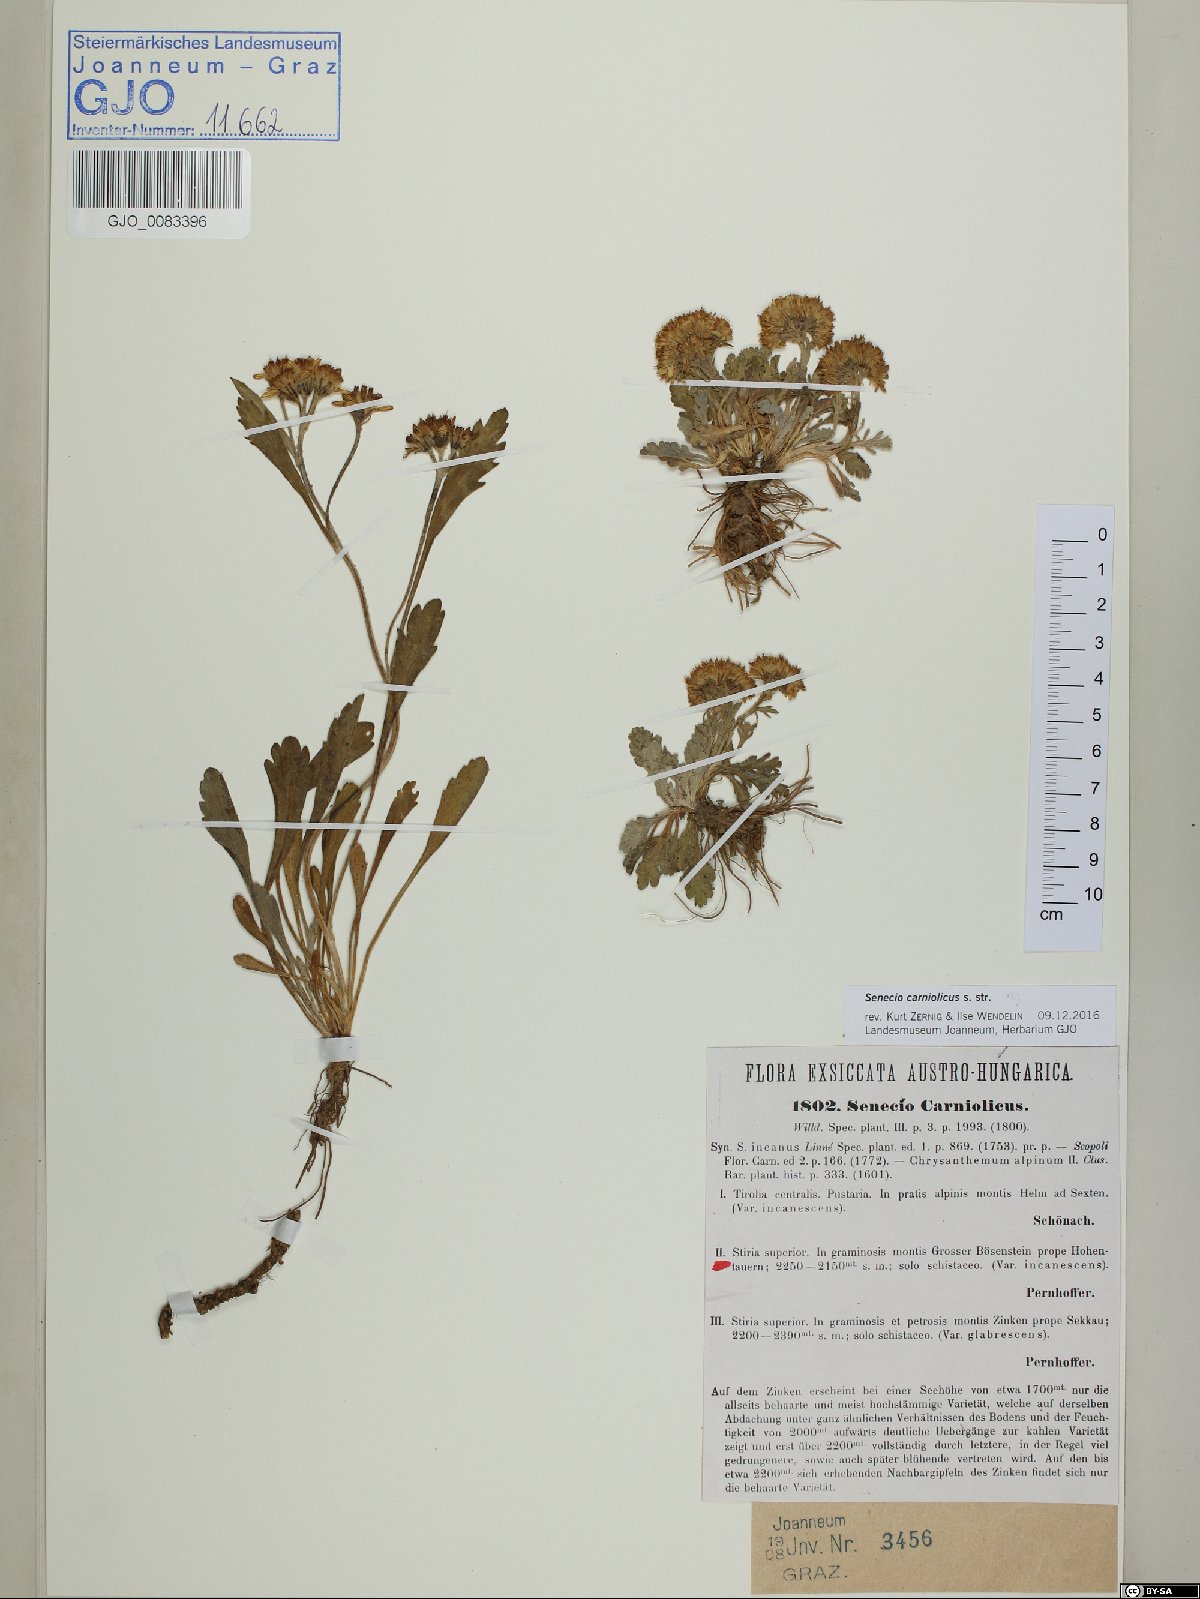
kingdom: Plantae
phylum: Tracheophyta
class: Magnoliopsida
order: Asterales
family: Asteraceae
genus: Jacobaea
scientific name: Jacobaea carniolica
